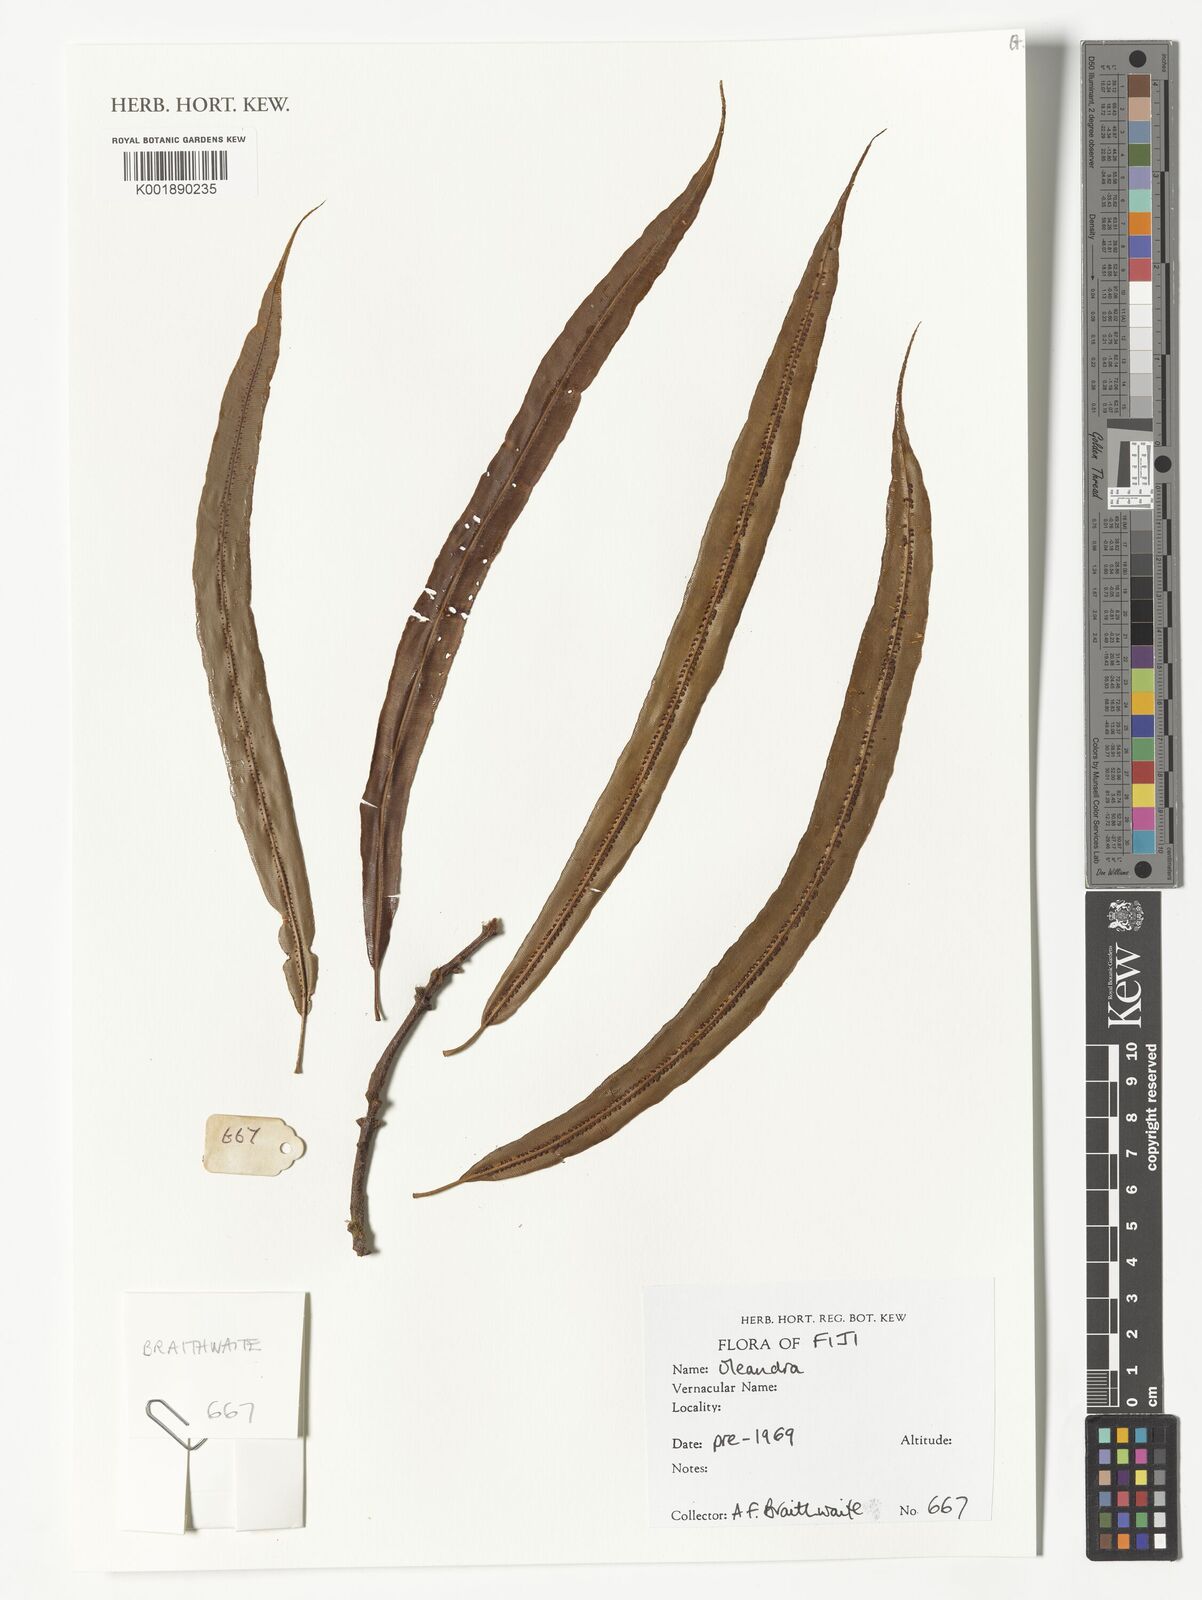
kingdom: Plantae
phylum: Tracheophyta
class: Polypodiopsida
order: Polypodiales
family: Oleandraceae
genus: Oleandra
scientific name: Oleandra
